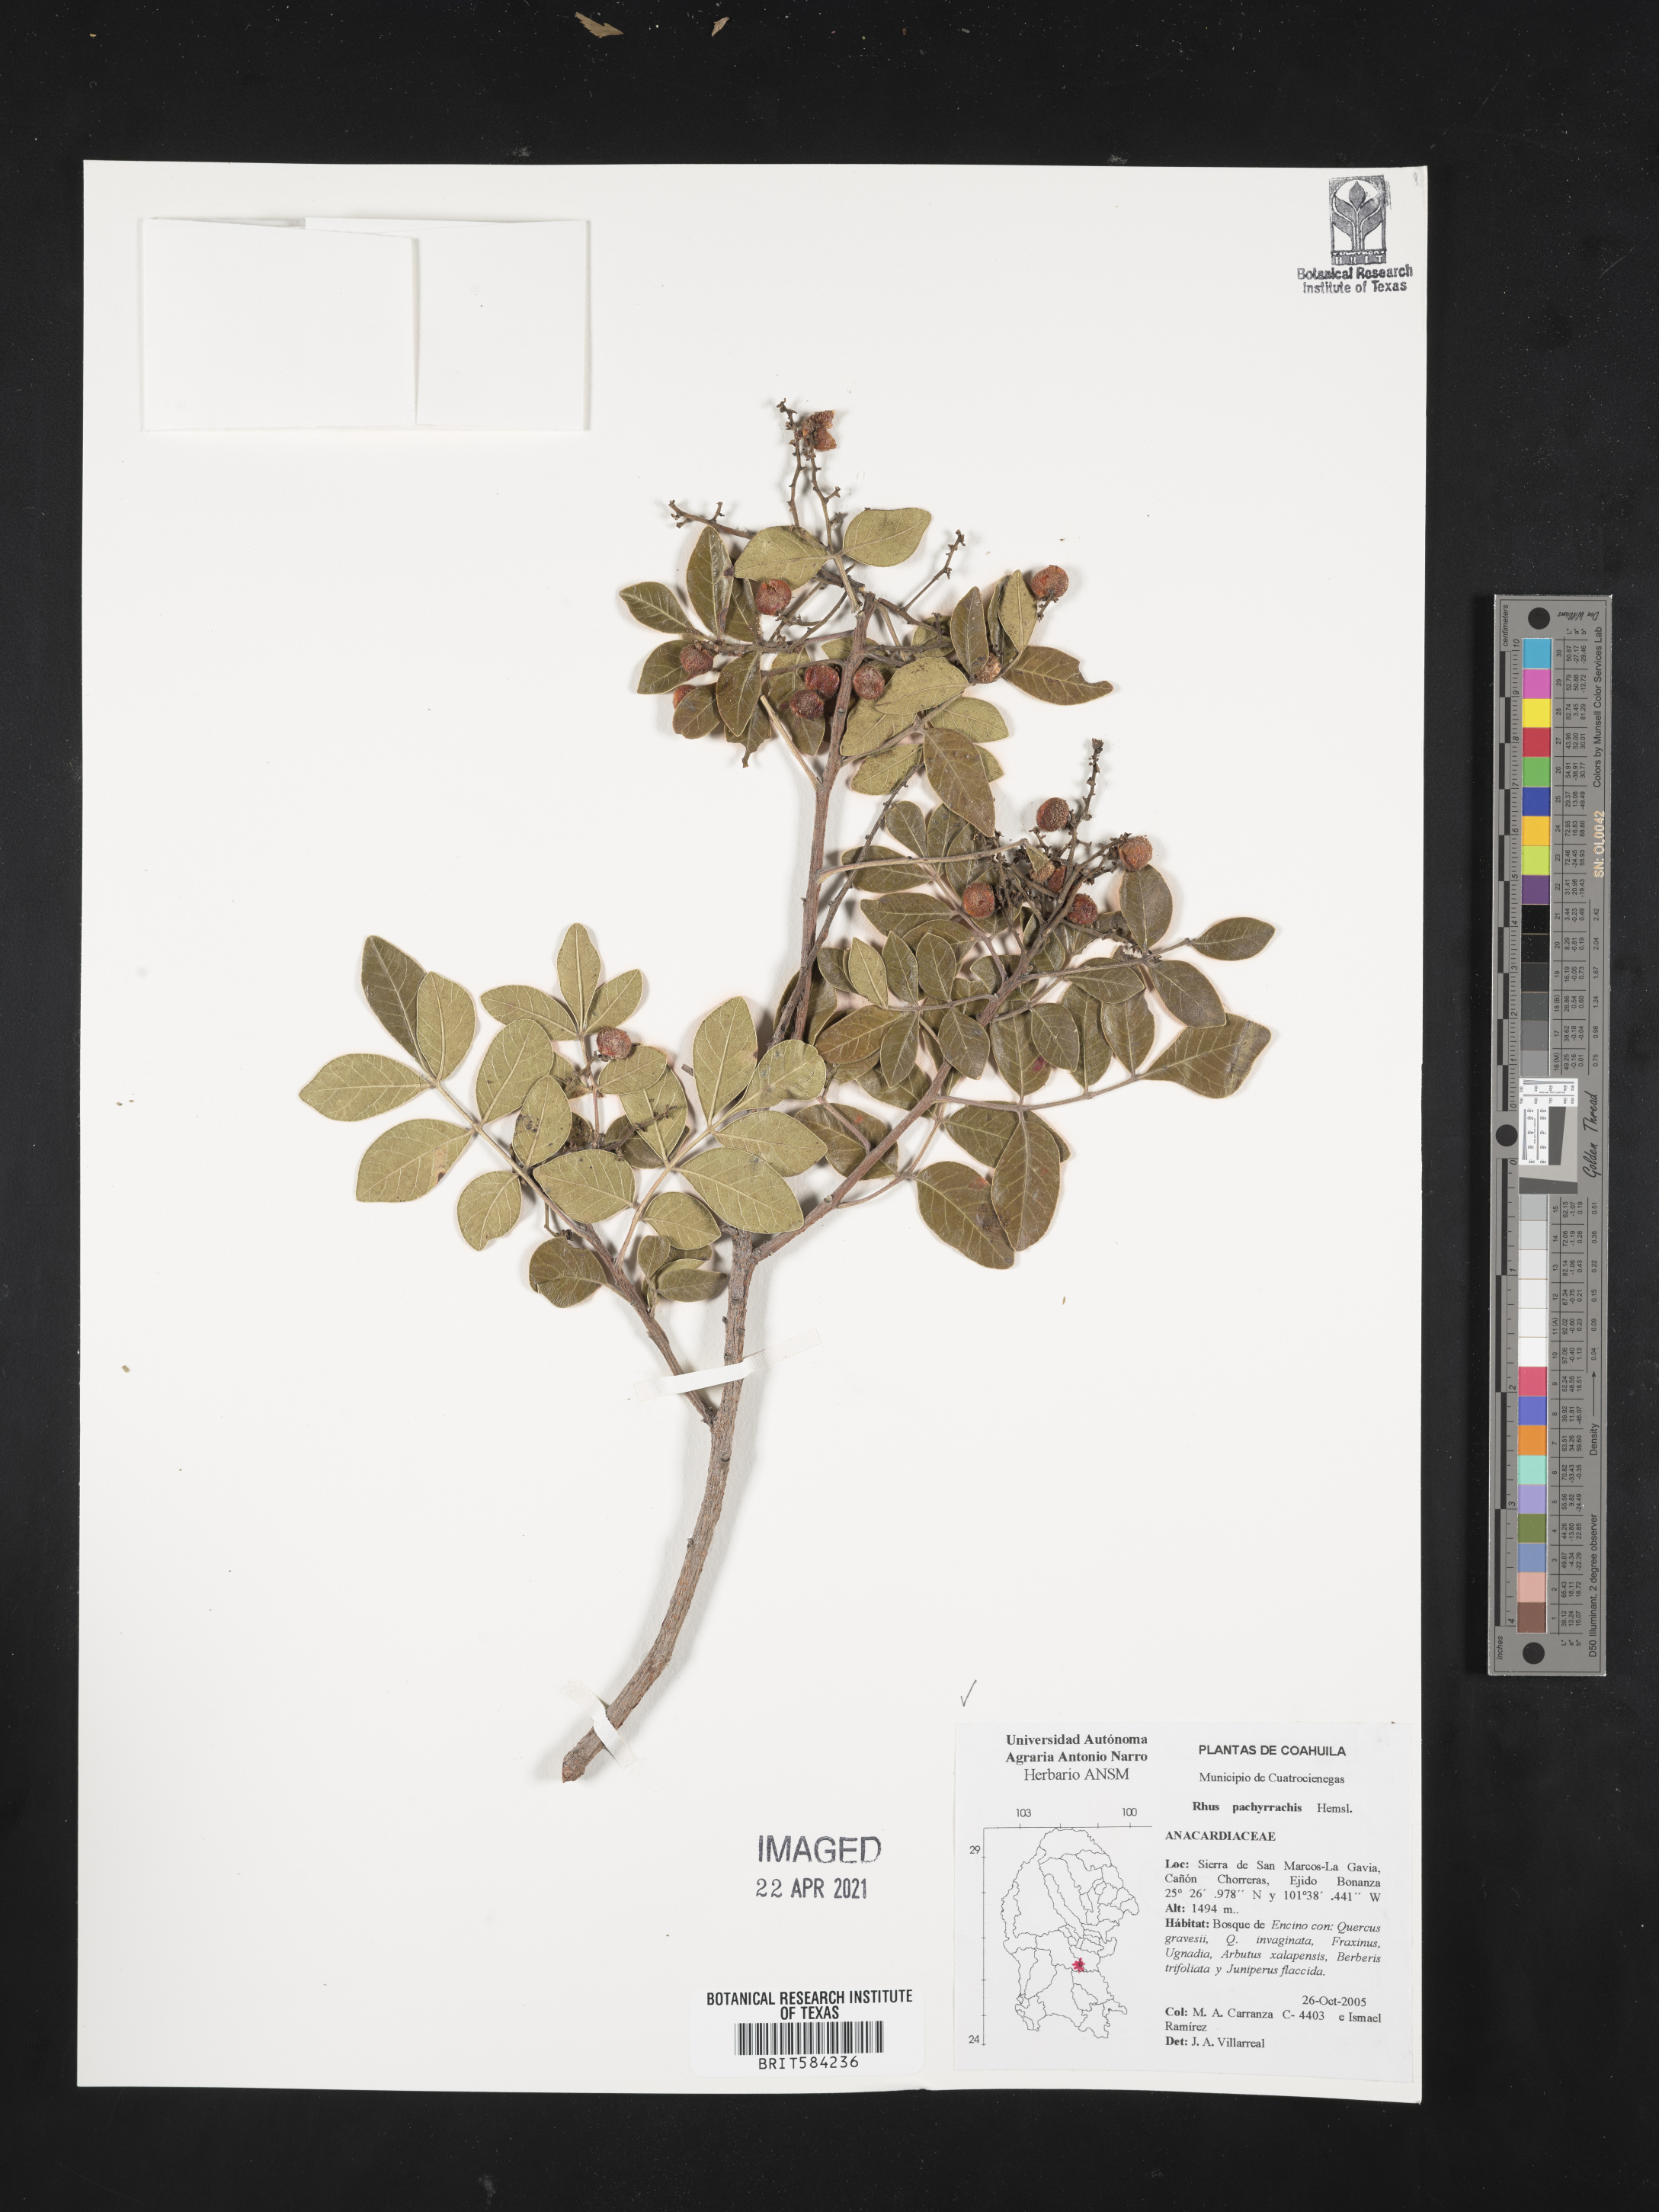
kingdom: Plantae
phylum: Tracheophyta
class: Magnoliopsida
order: Sapindales
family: Anacardiaceae
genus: Rhus
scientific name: Rhus pachyrrhachis
